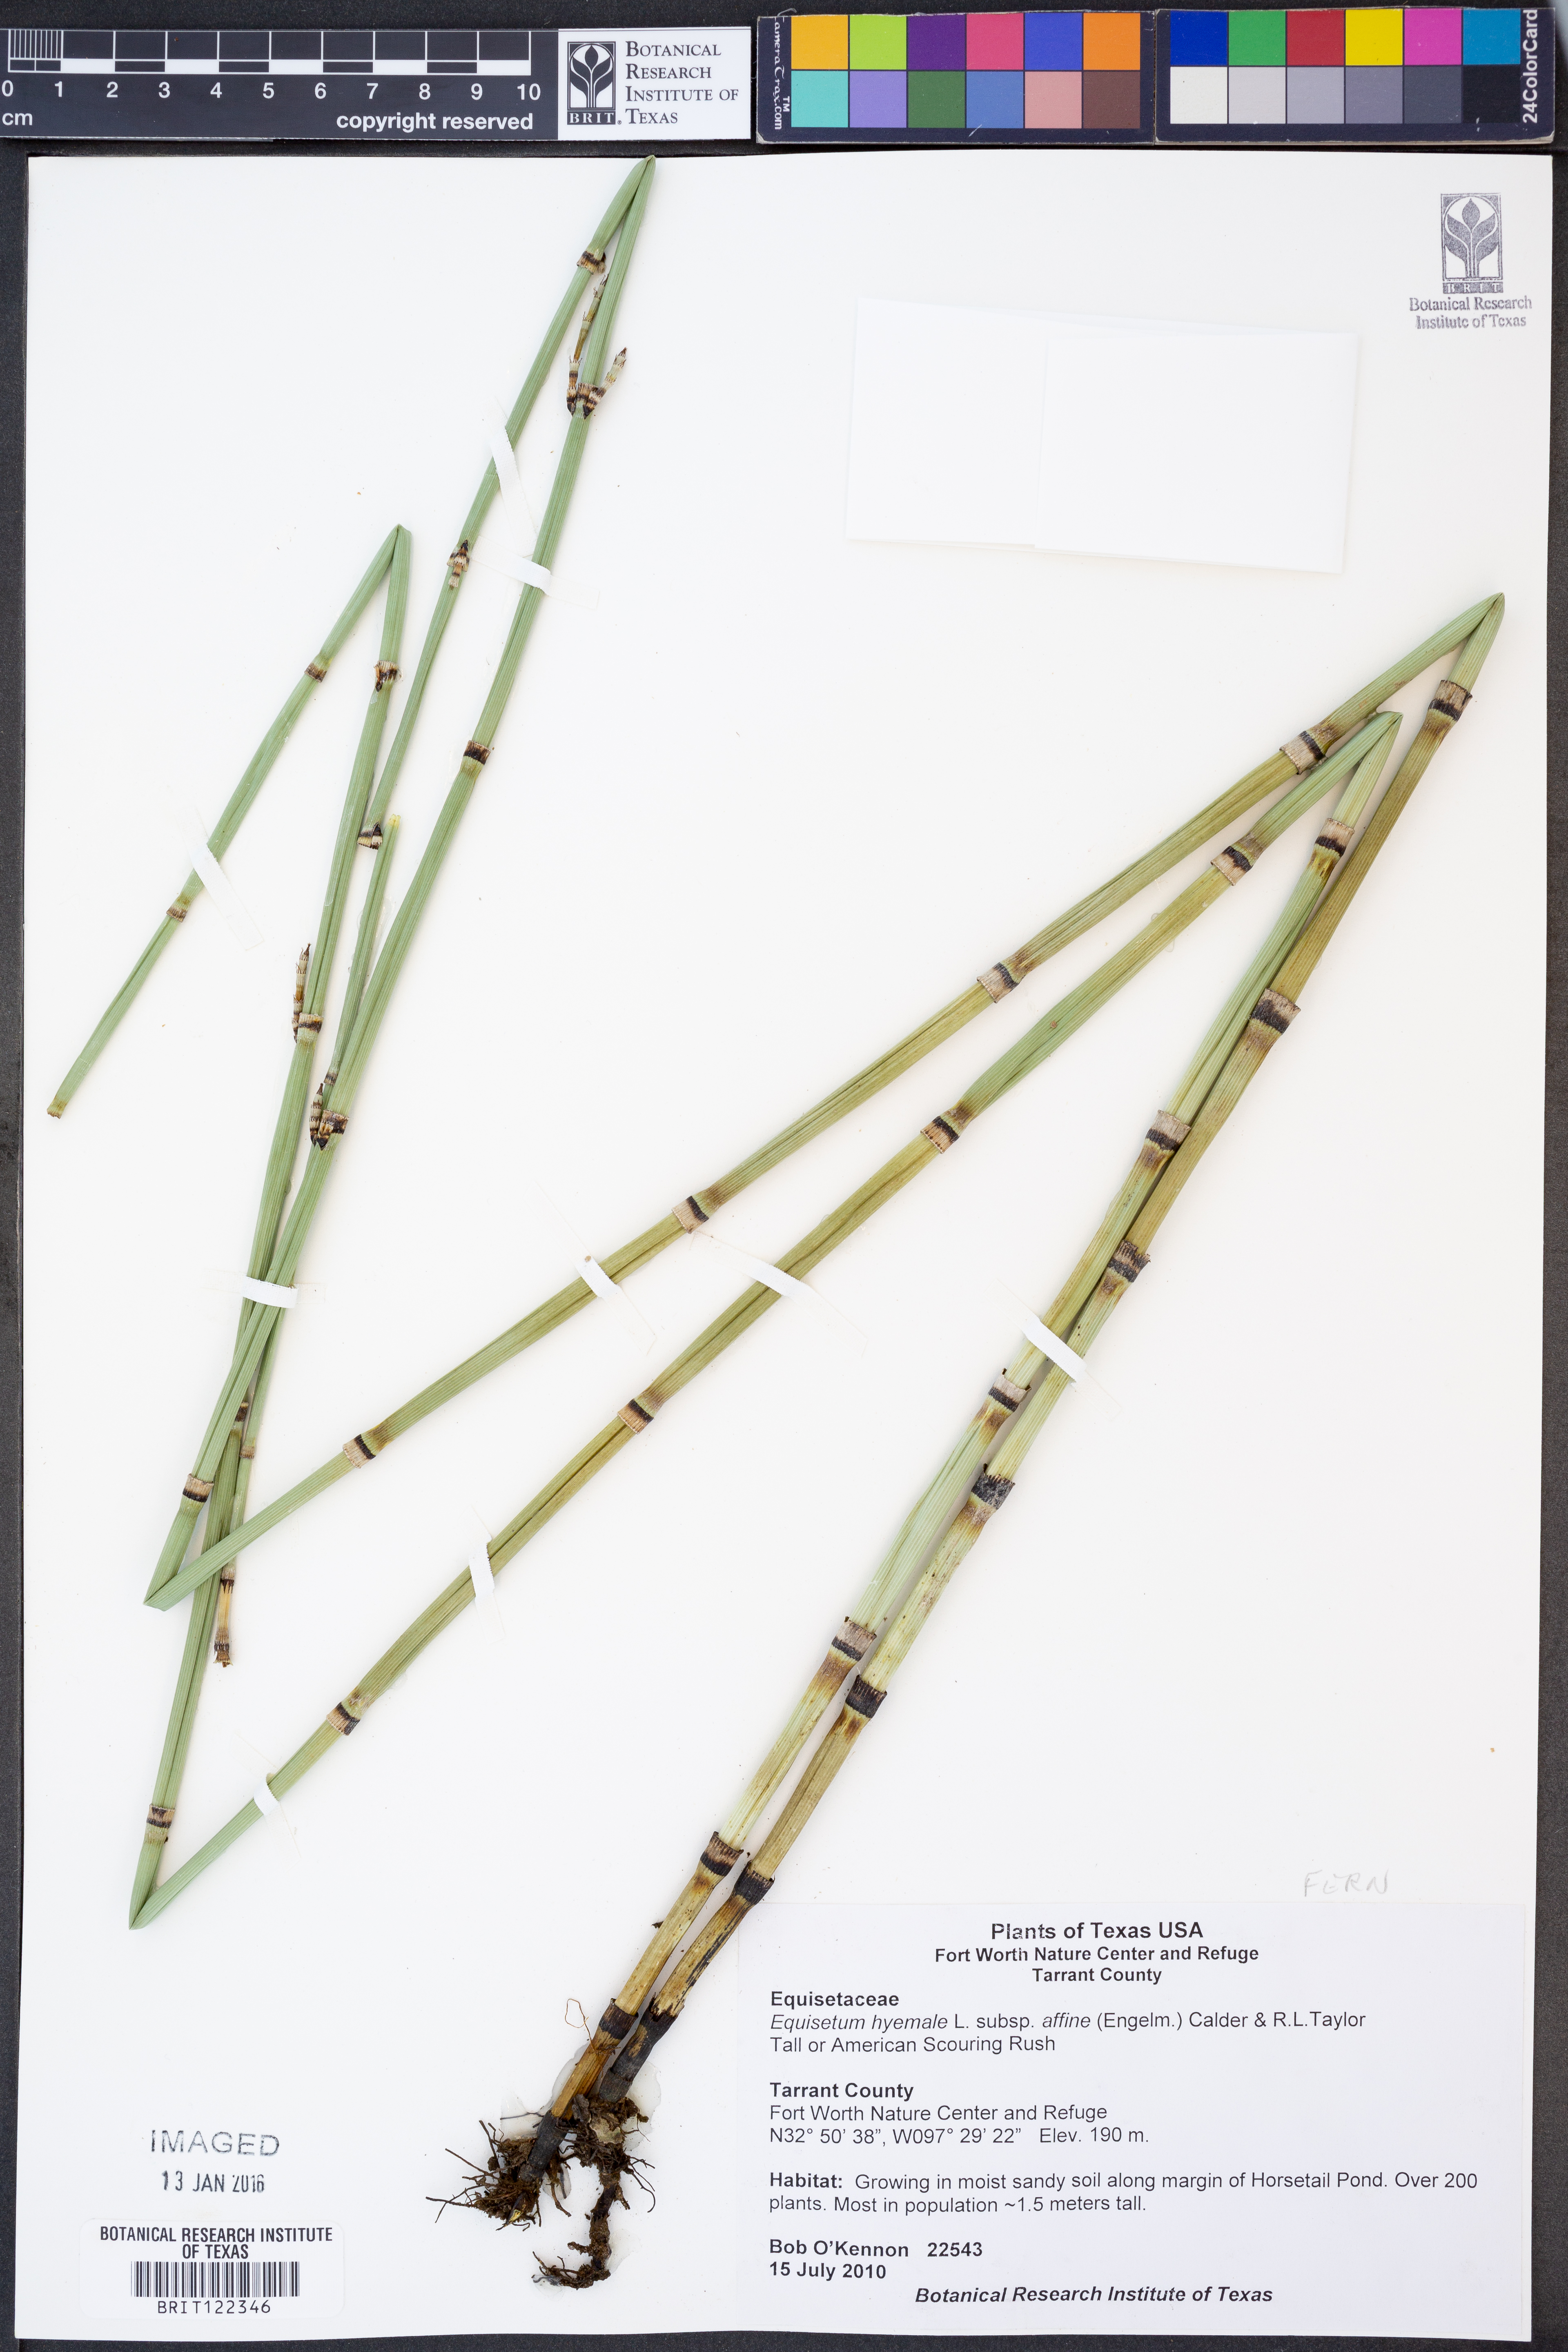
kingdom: Plantae
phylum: Tracheophyta
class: Polypodiopsida
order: Equisetales
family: Equisetaceae
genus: Equisetum
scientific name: Equisetum praealtum
